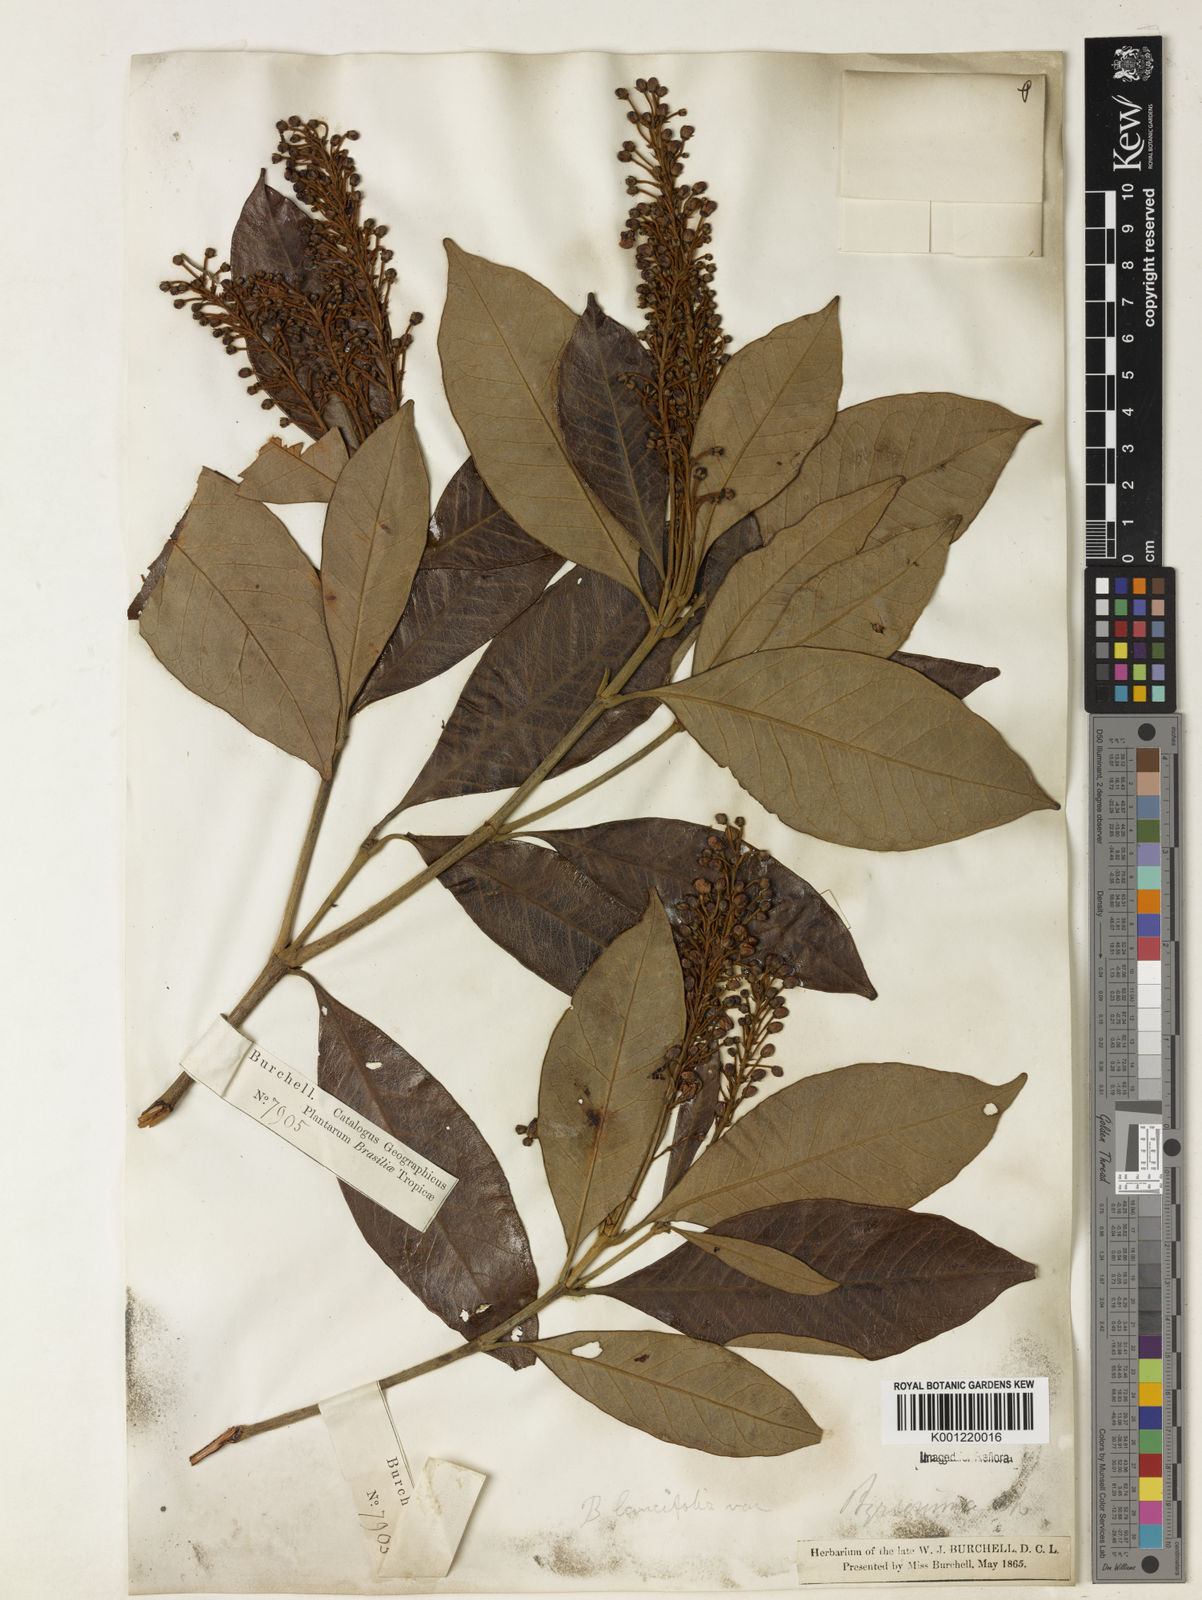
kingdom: Plantae
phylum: Tracheophyta
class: Magnoliopsida
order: Malpighiales
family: Malpighiaceae
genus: Byrsonima
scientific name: Byrsonima lancifolia
